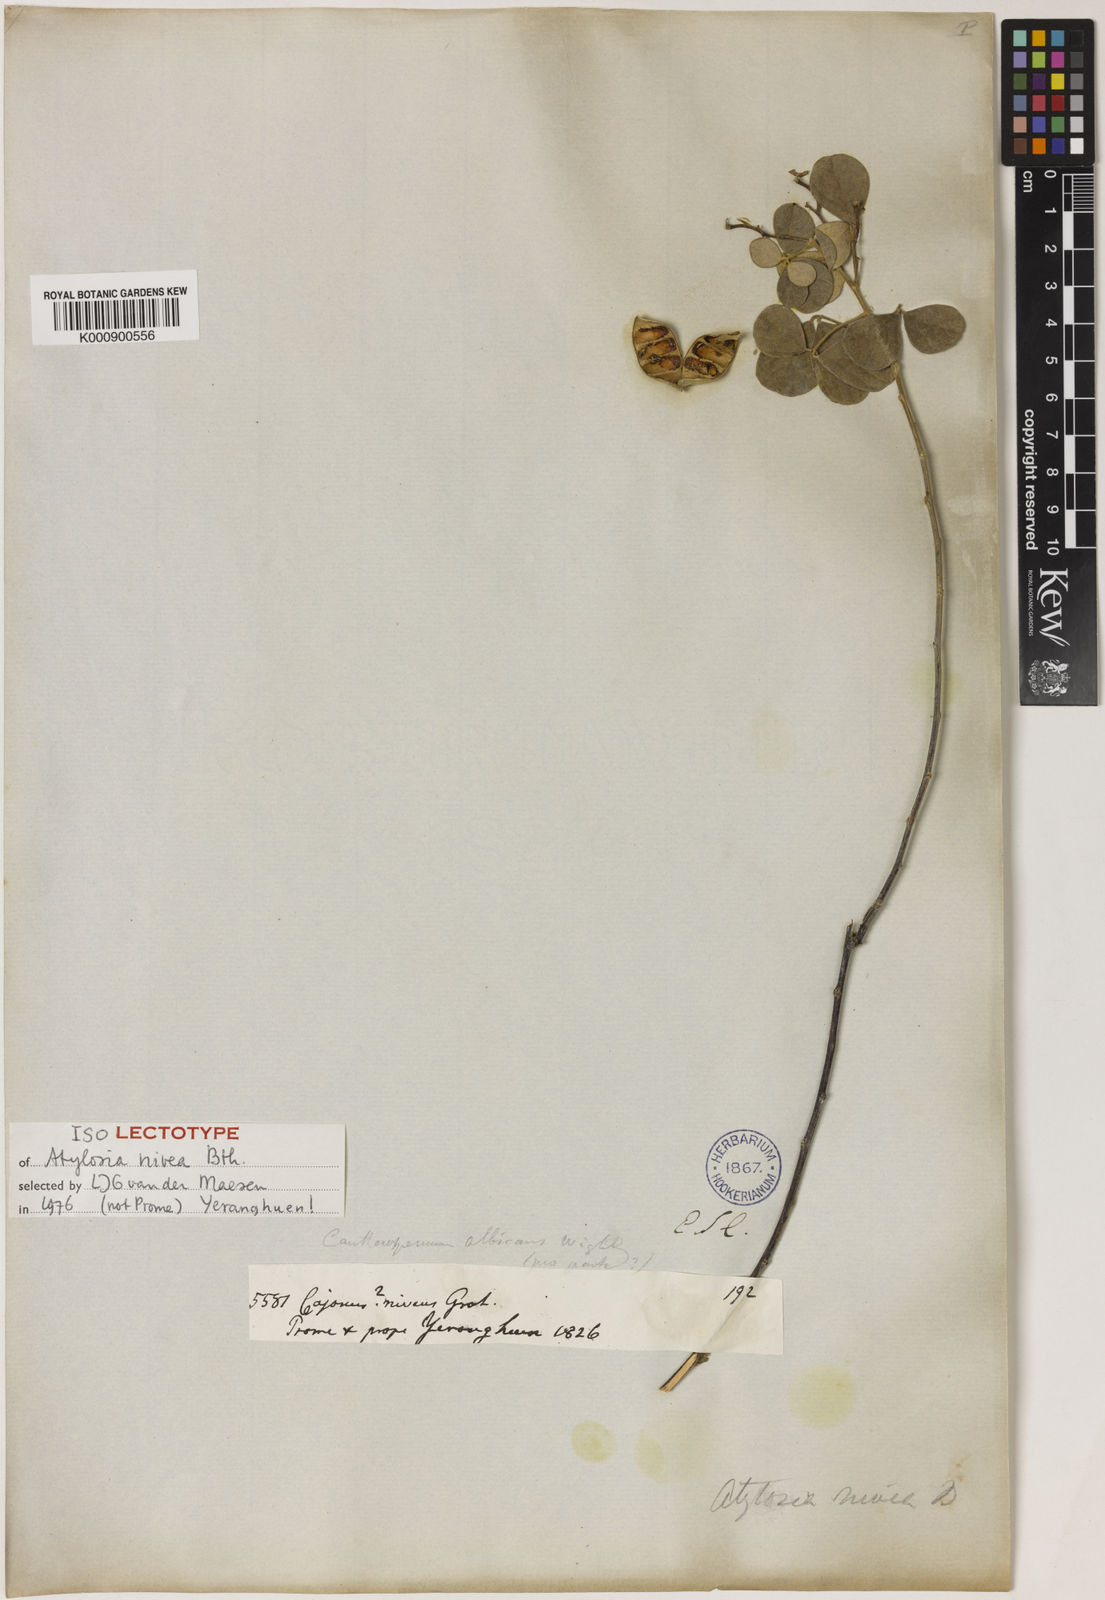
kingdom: Plantae
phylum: Tracheophyta
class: Magnoliopsida
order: Fabales
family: Fabaceae
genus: Cajanus
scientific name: Cajanus
